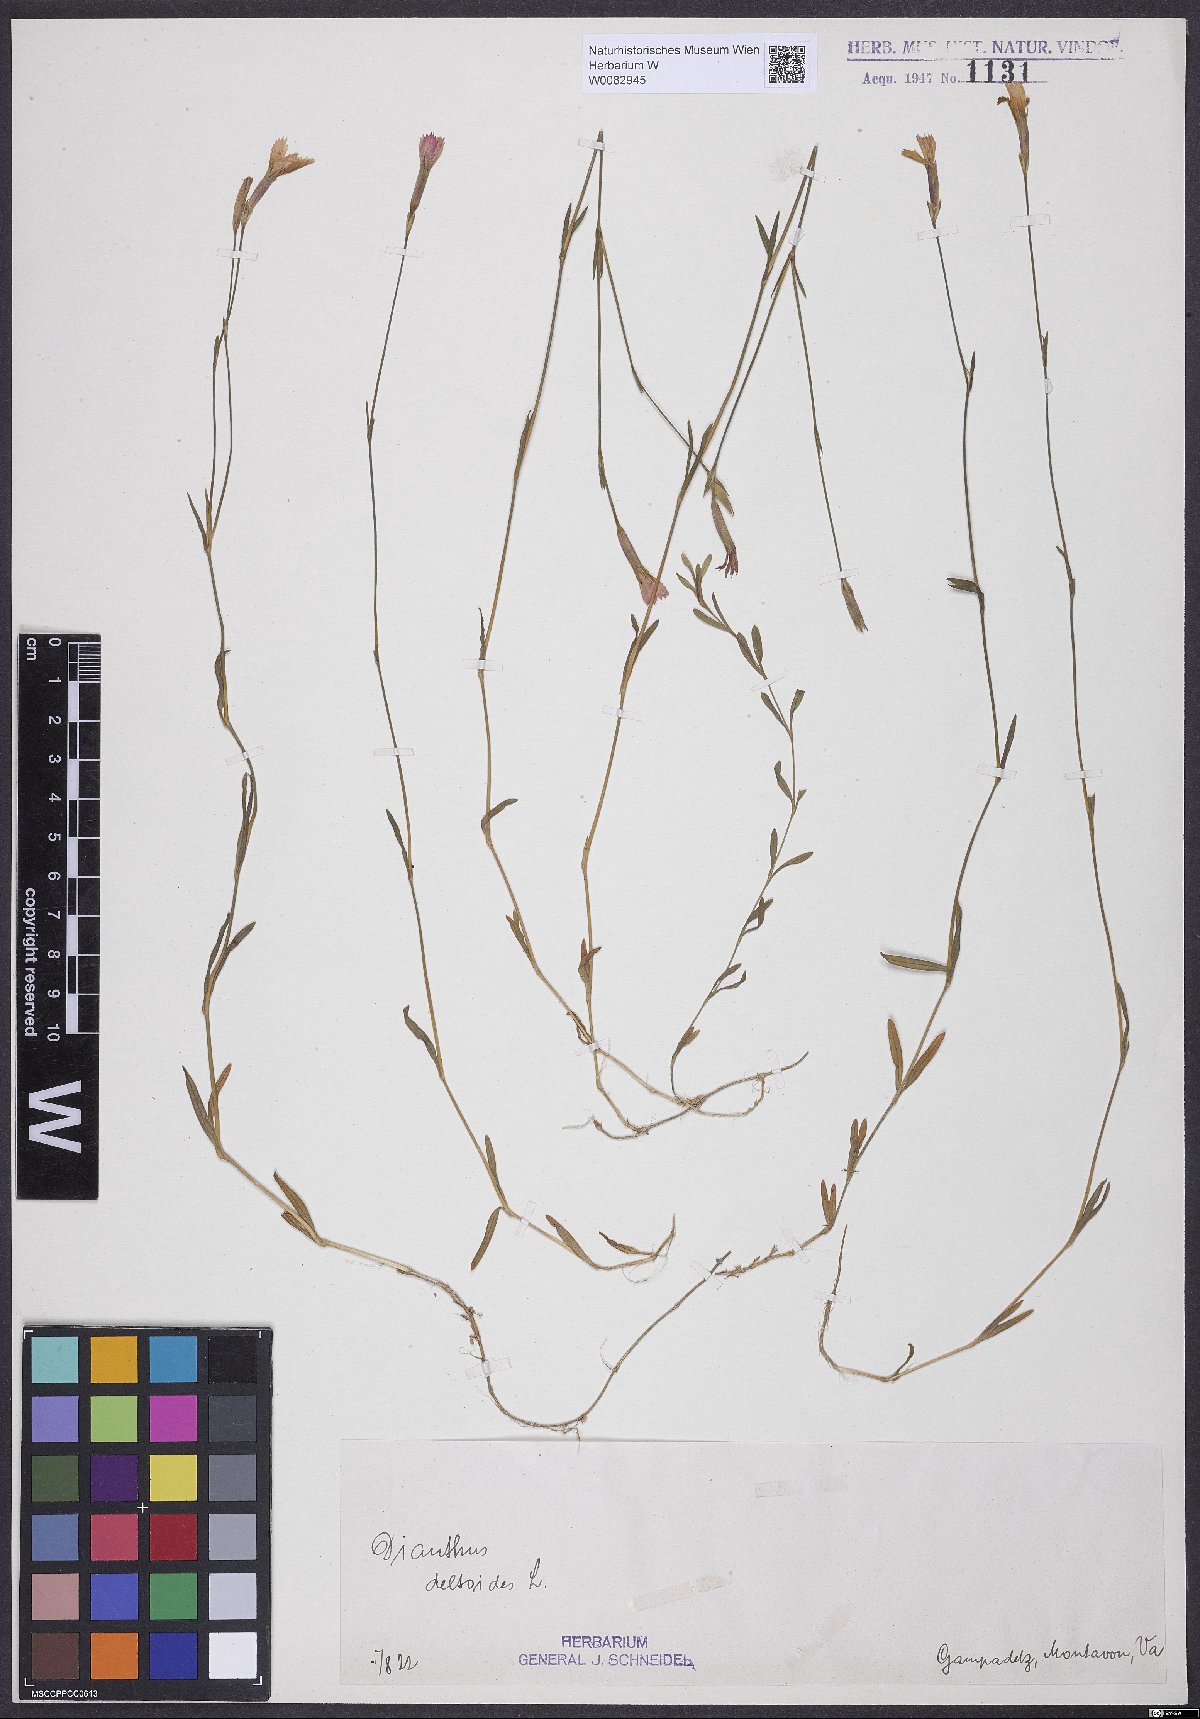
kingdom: Plantae
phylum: Tracheophyta
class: Magnoliopsida
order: Caryophyllales
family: Caryophyllaceae
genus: Dianthus
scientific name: Dianthus deltoides
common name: Maiden pink
